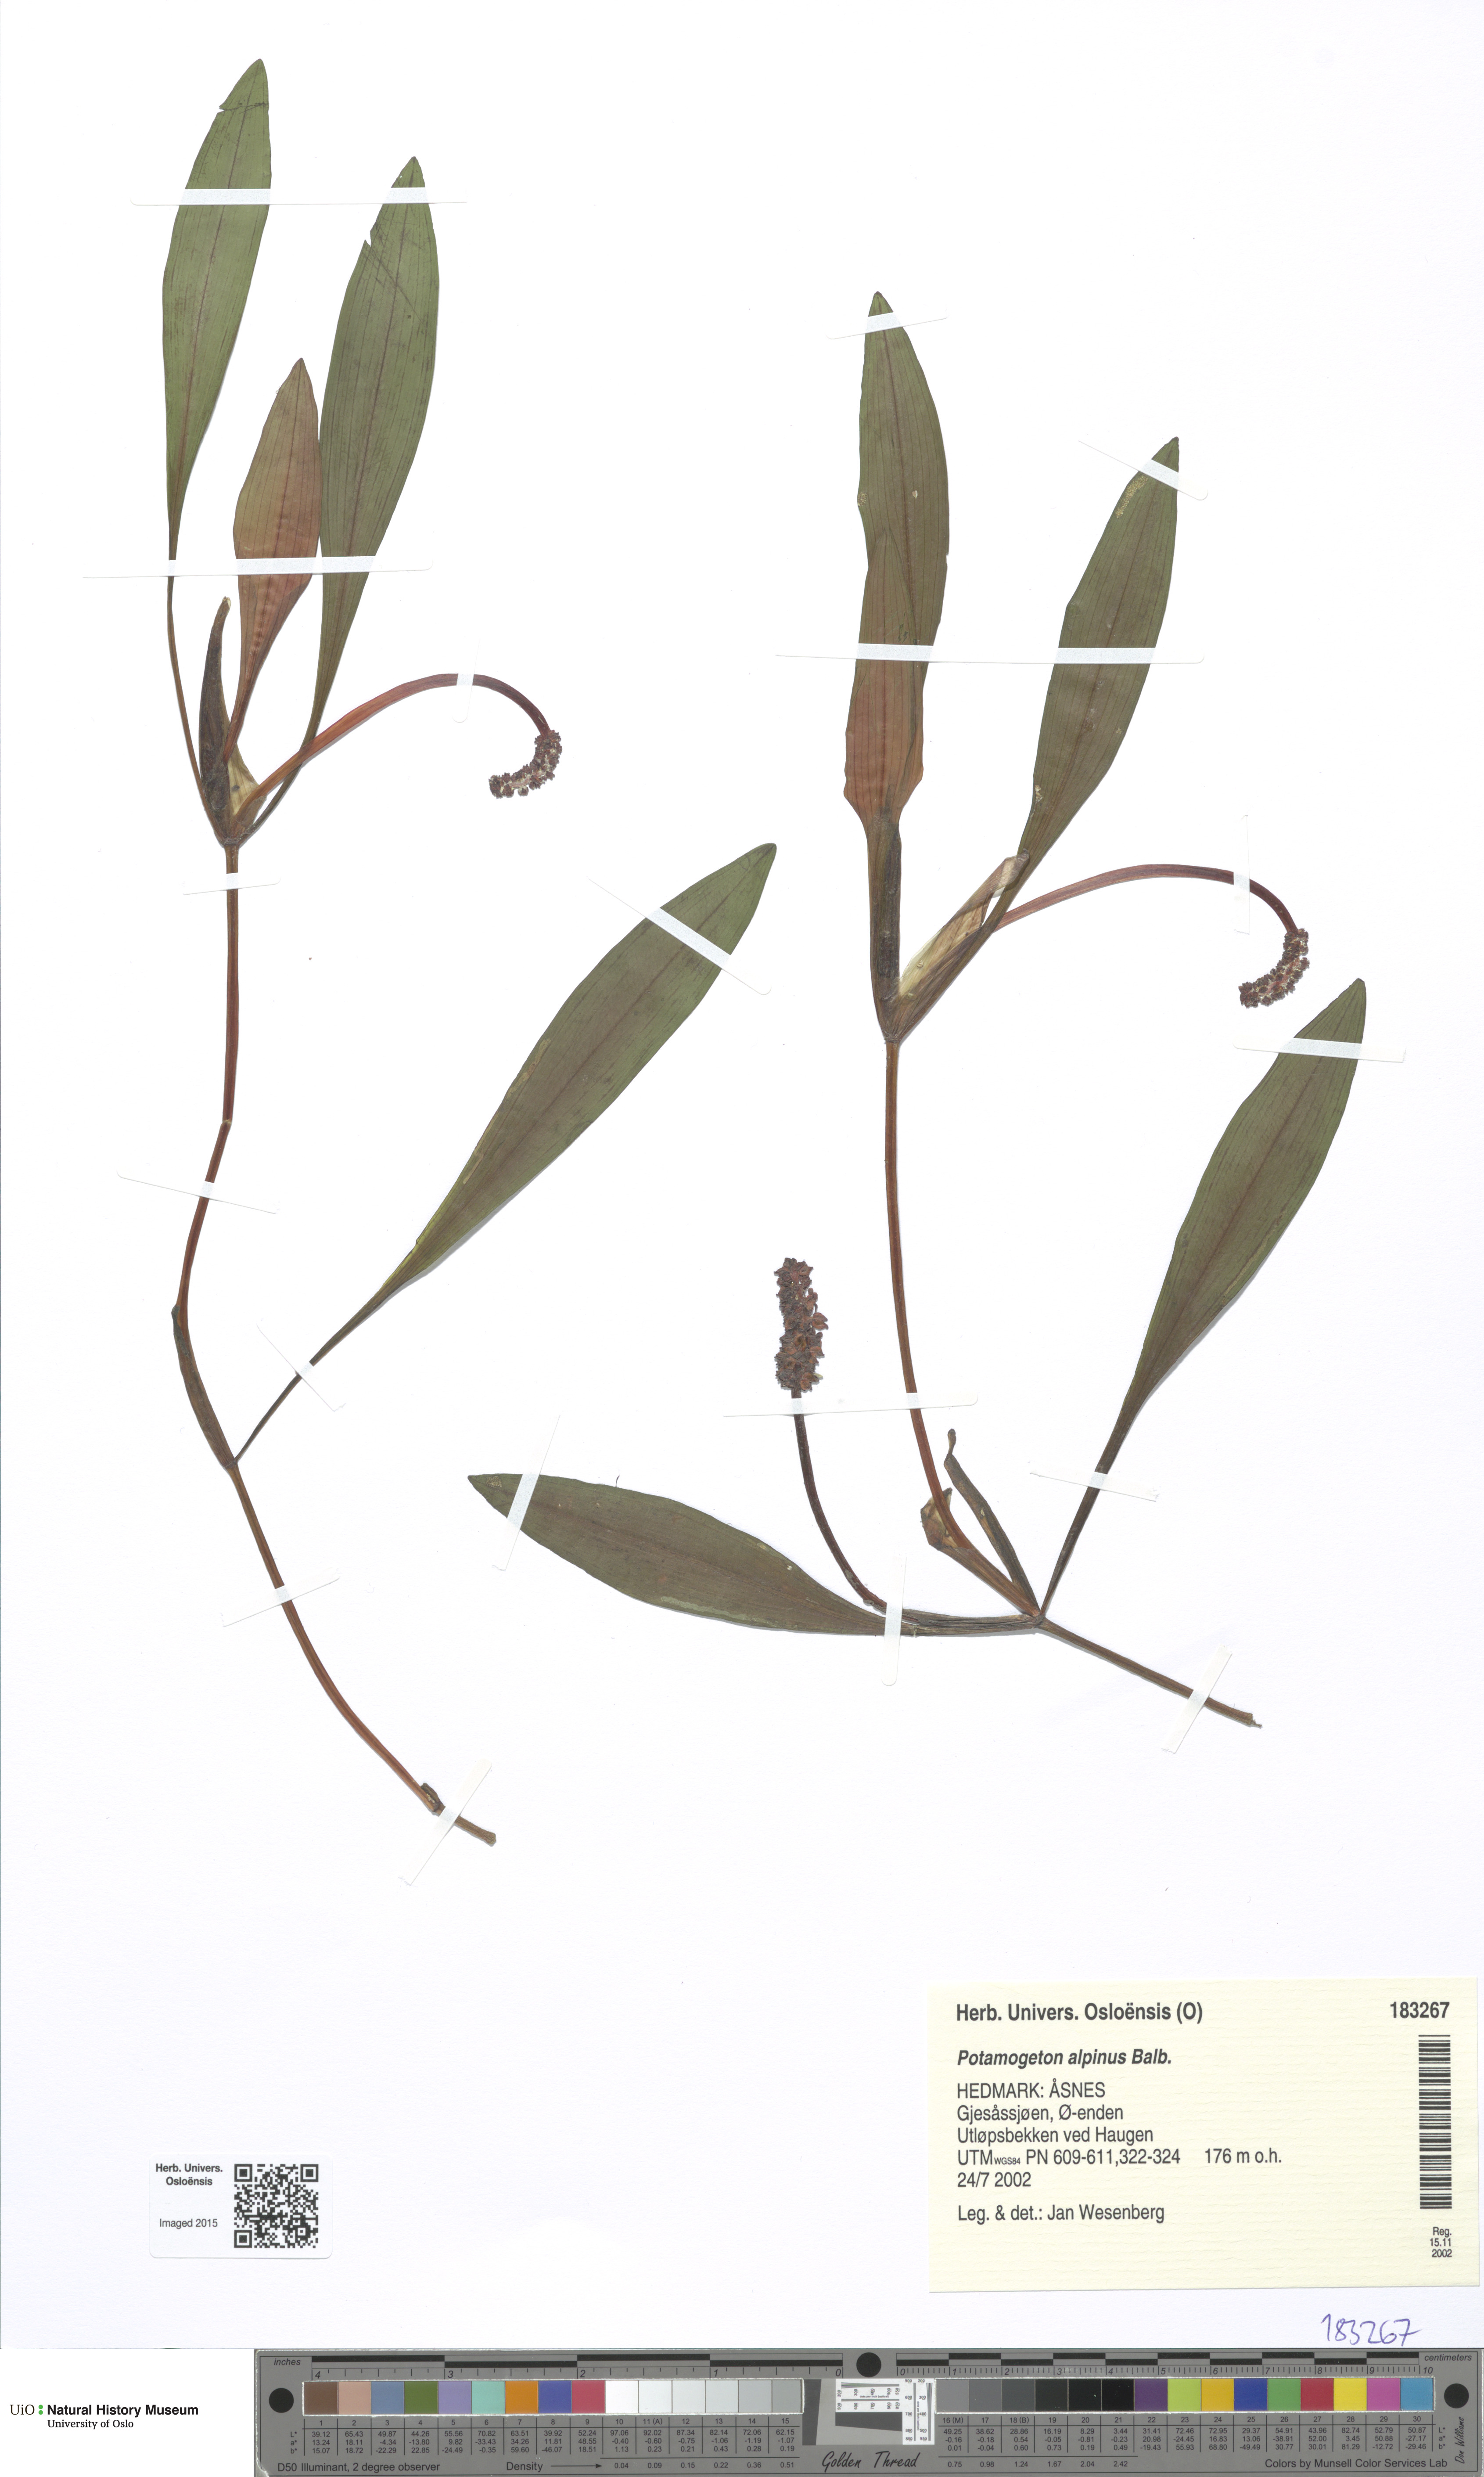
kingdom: Plantae
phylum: Tracheophyta
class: Liliopsida
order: Alismatales
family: Potamogetonaceae
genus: Potamogeton
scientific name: Potamogeton alpinus
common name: Red pondweed
